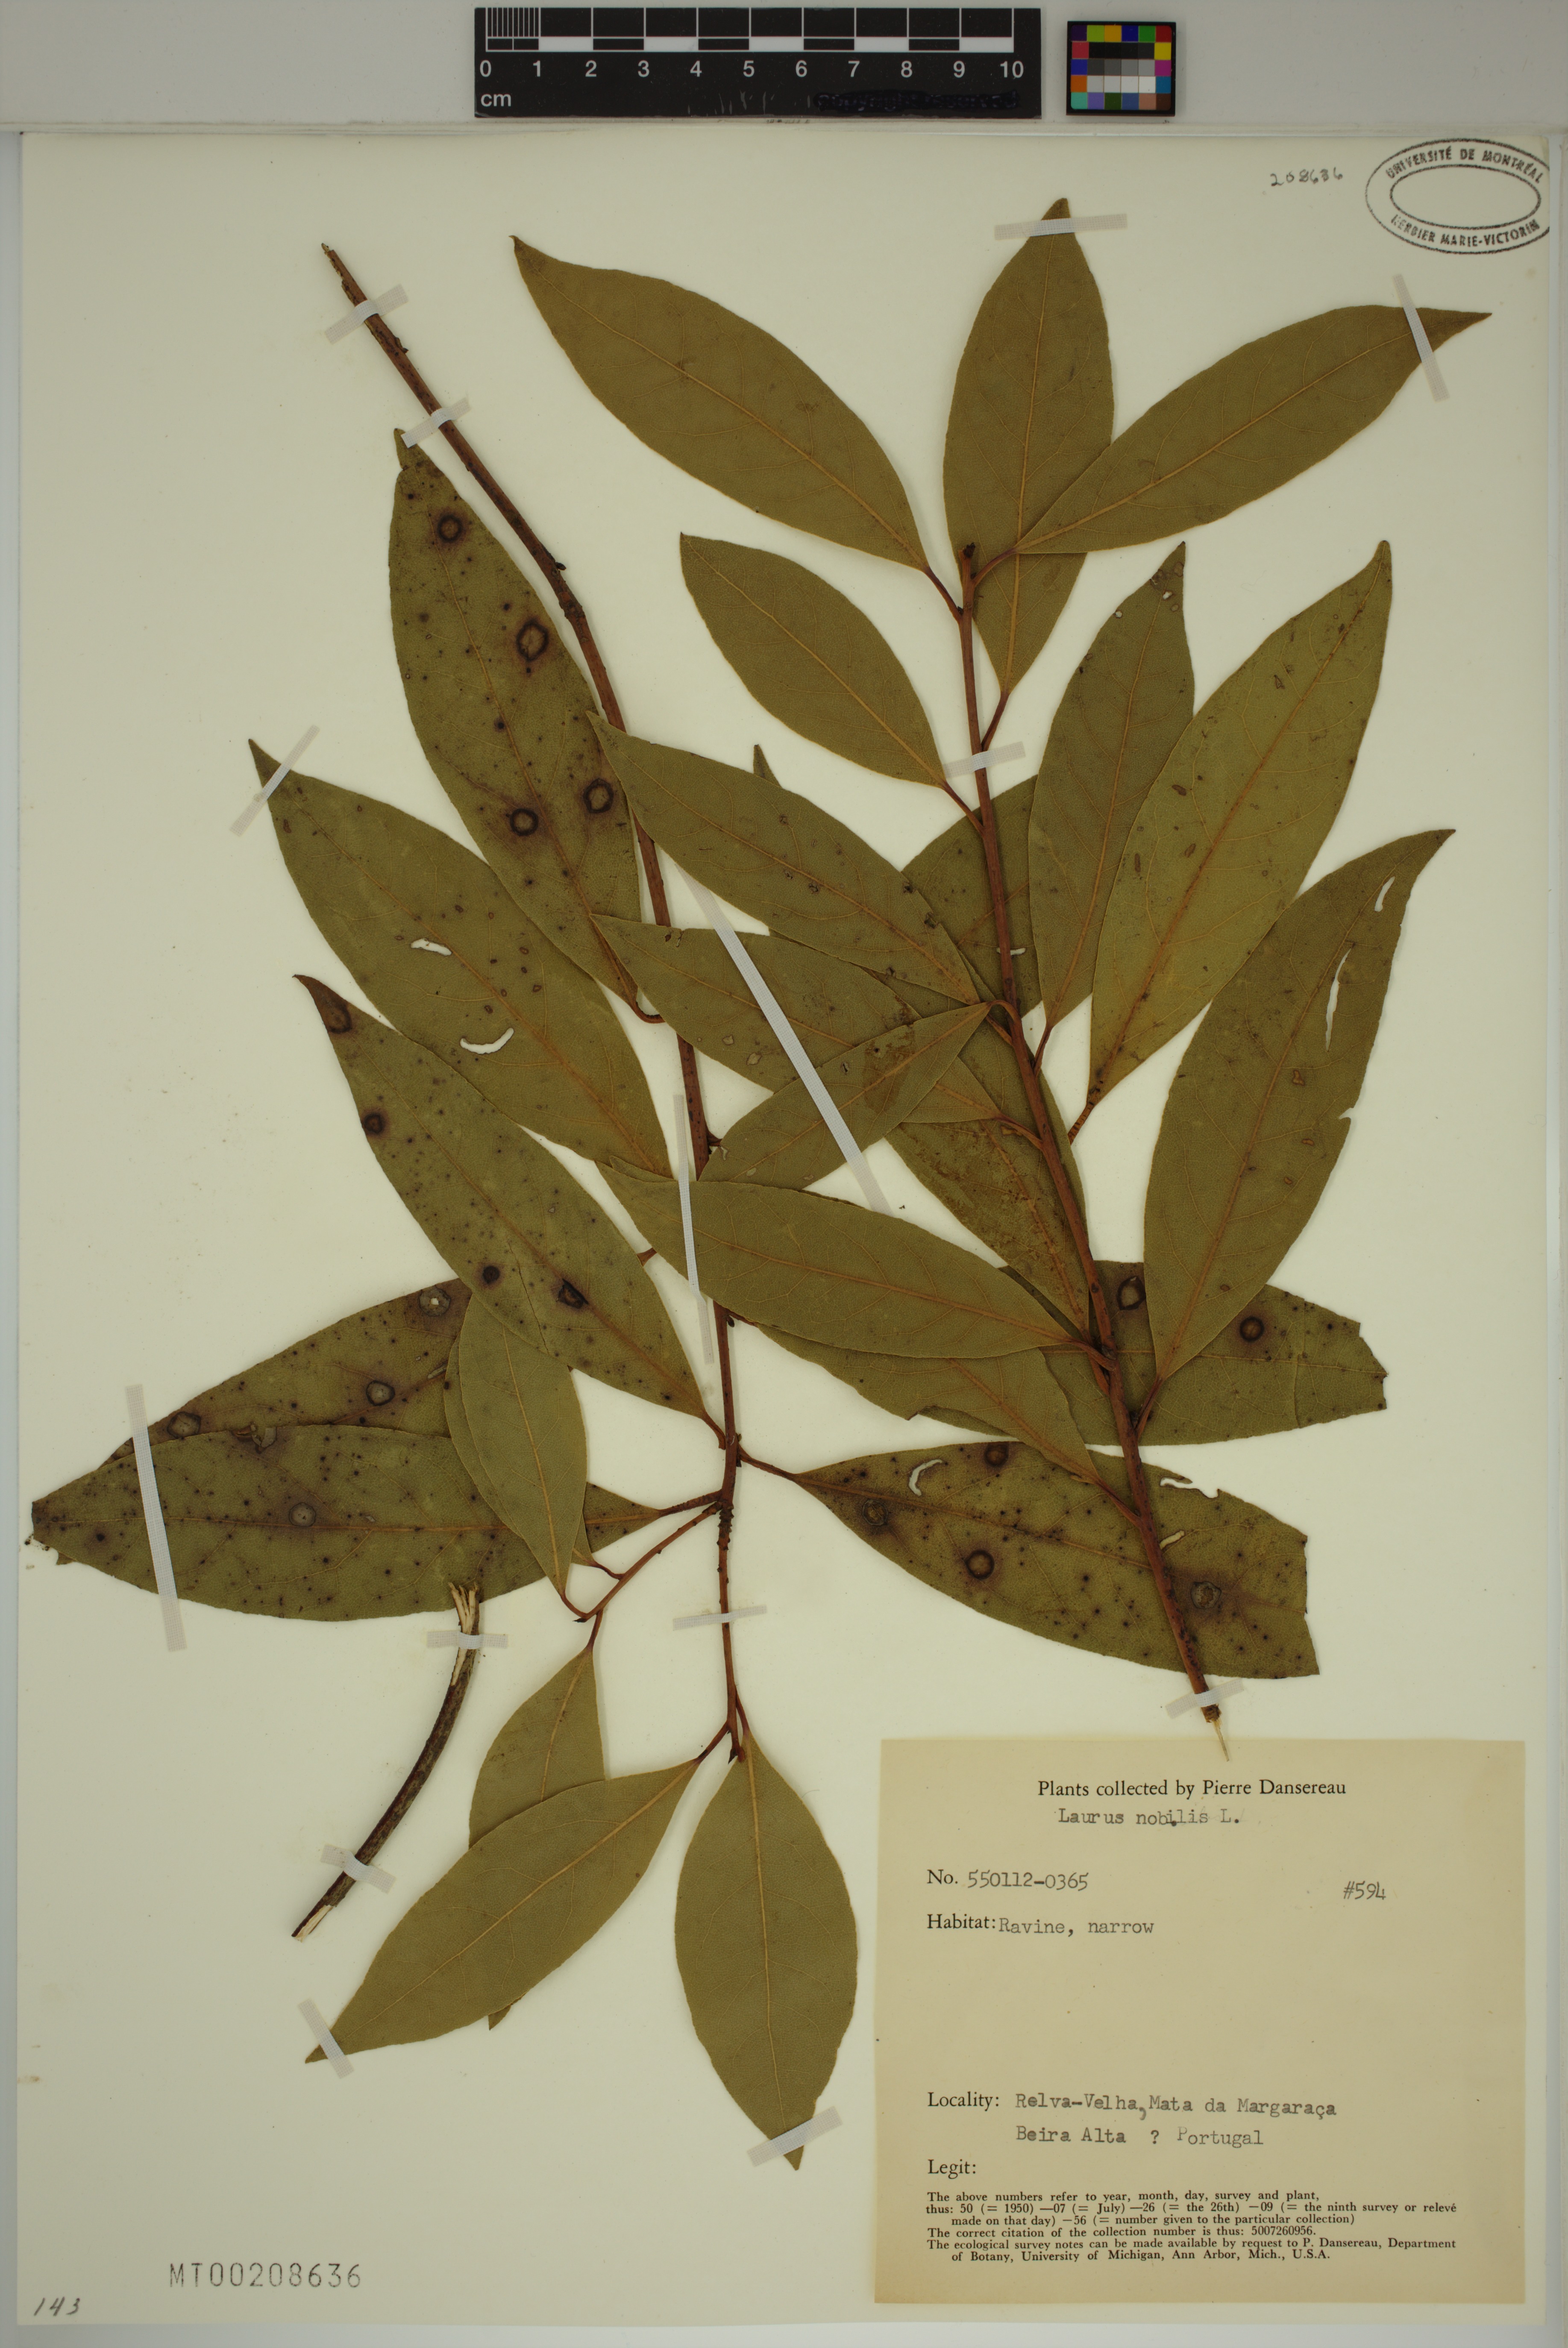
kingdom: Plantae
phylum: Tracheophyta
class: Magnoliopsida
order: Laurales
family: Lauraceae
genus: Laurus
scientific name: Laurus nobilis
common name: Bay
